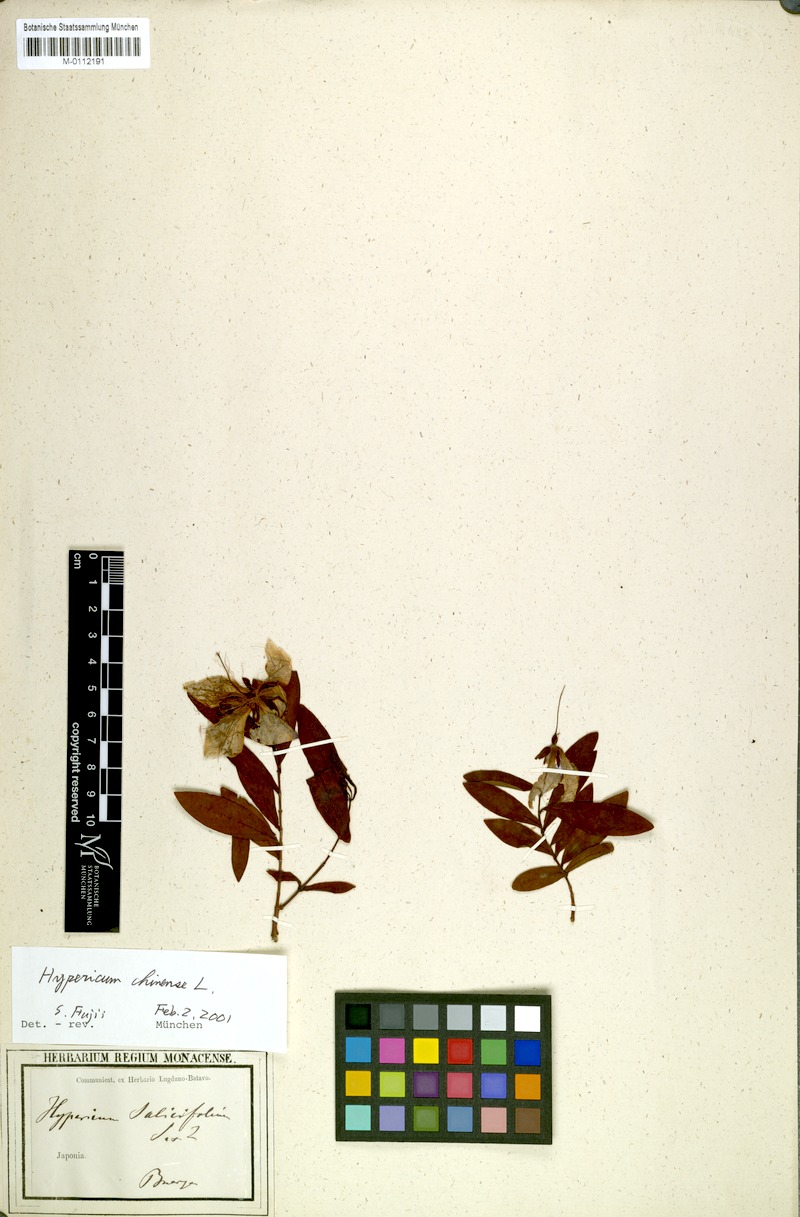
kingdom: Plantae
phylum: Tracheophyta
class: Magnoliopsida
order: Malpighiales
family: Hypericaceae
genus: Hypericum
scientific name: Hypericum monogynum
